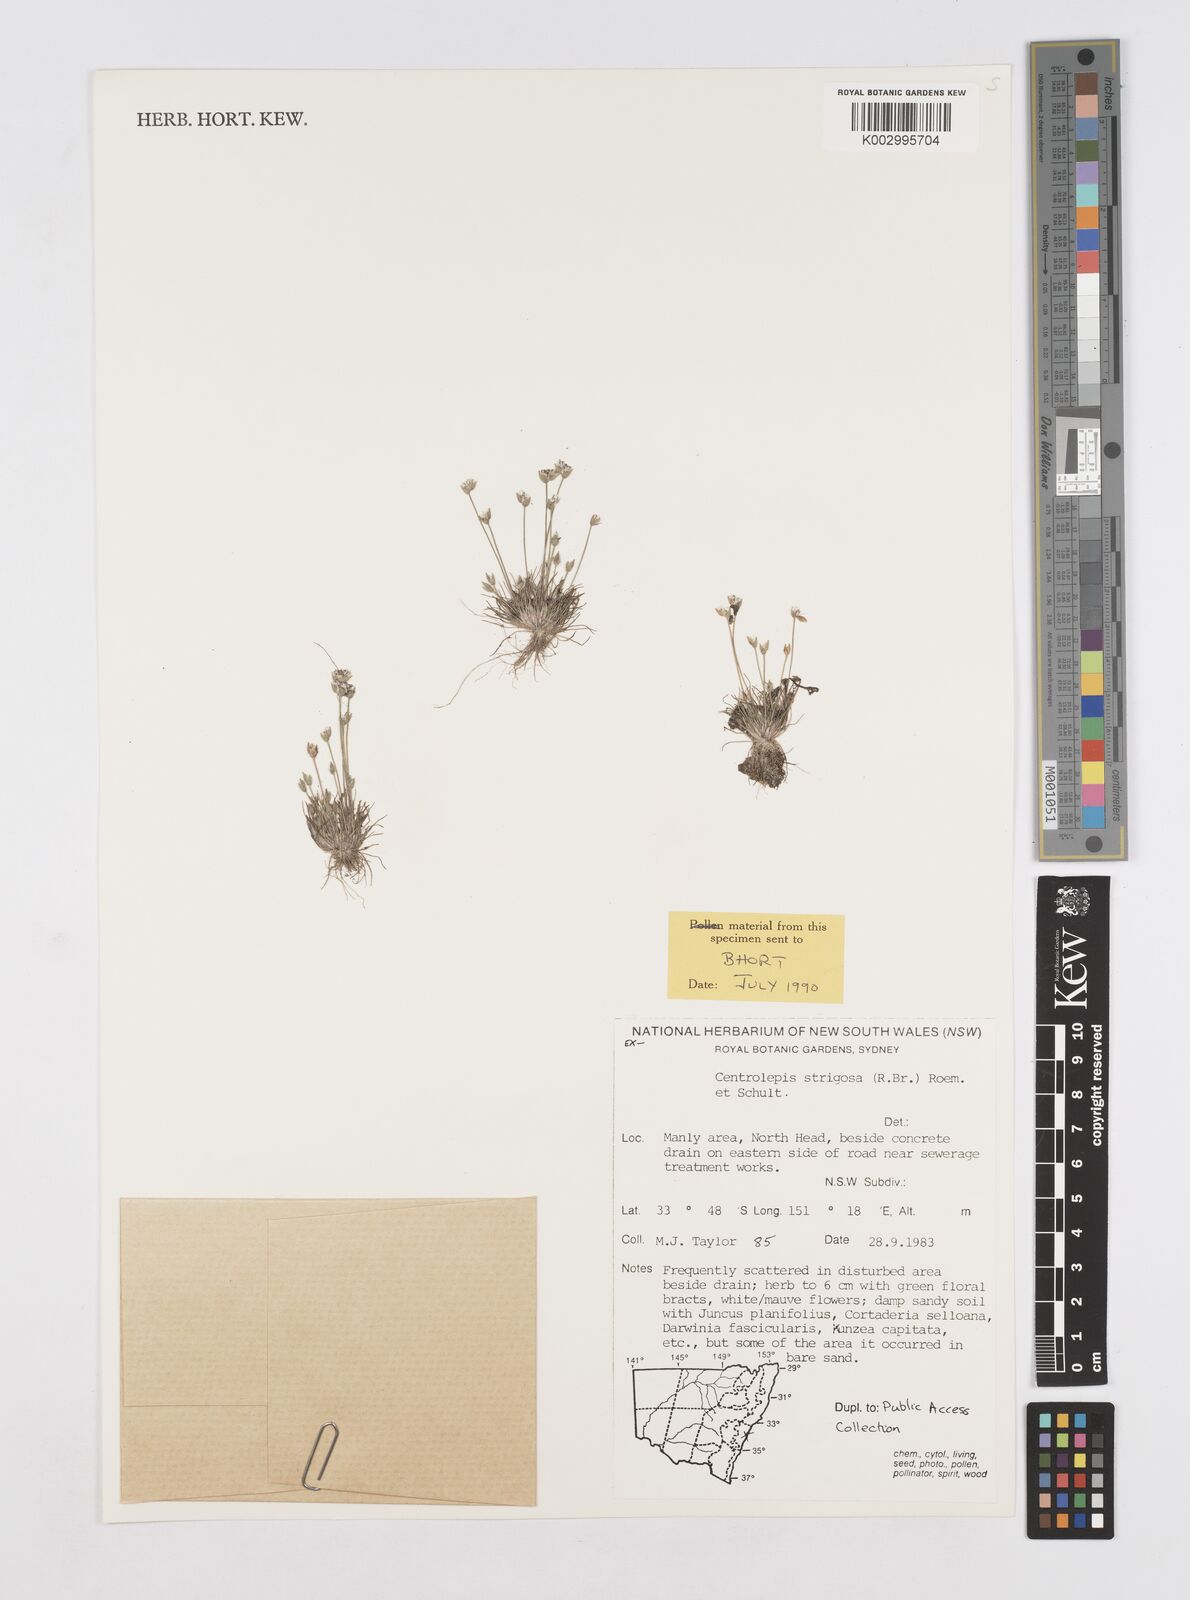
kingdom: Plantae
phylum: Tracheophyta
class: Liliopsida
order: Poales
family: Restionaceae
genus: Centrolepis
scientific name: Centrolepis strigosa
